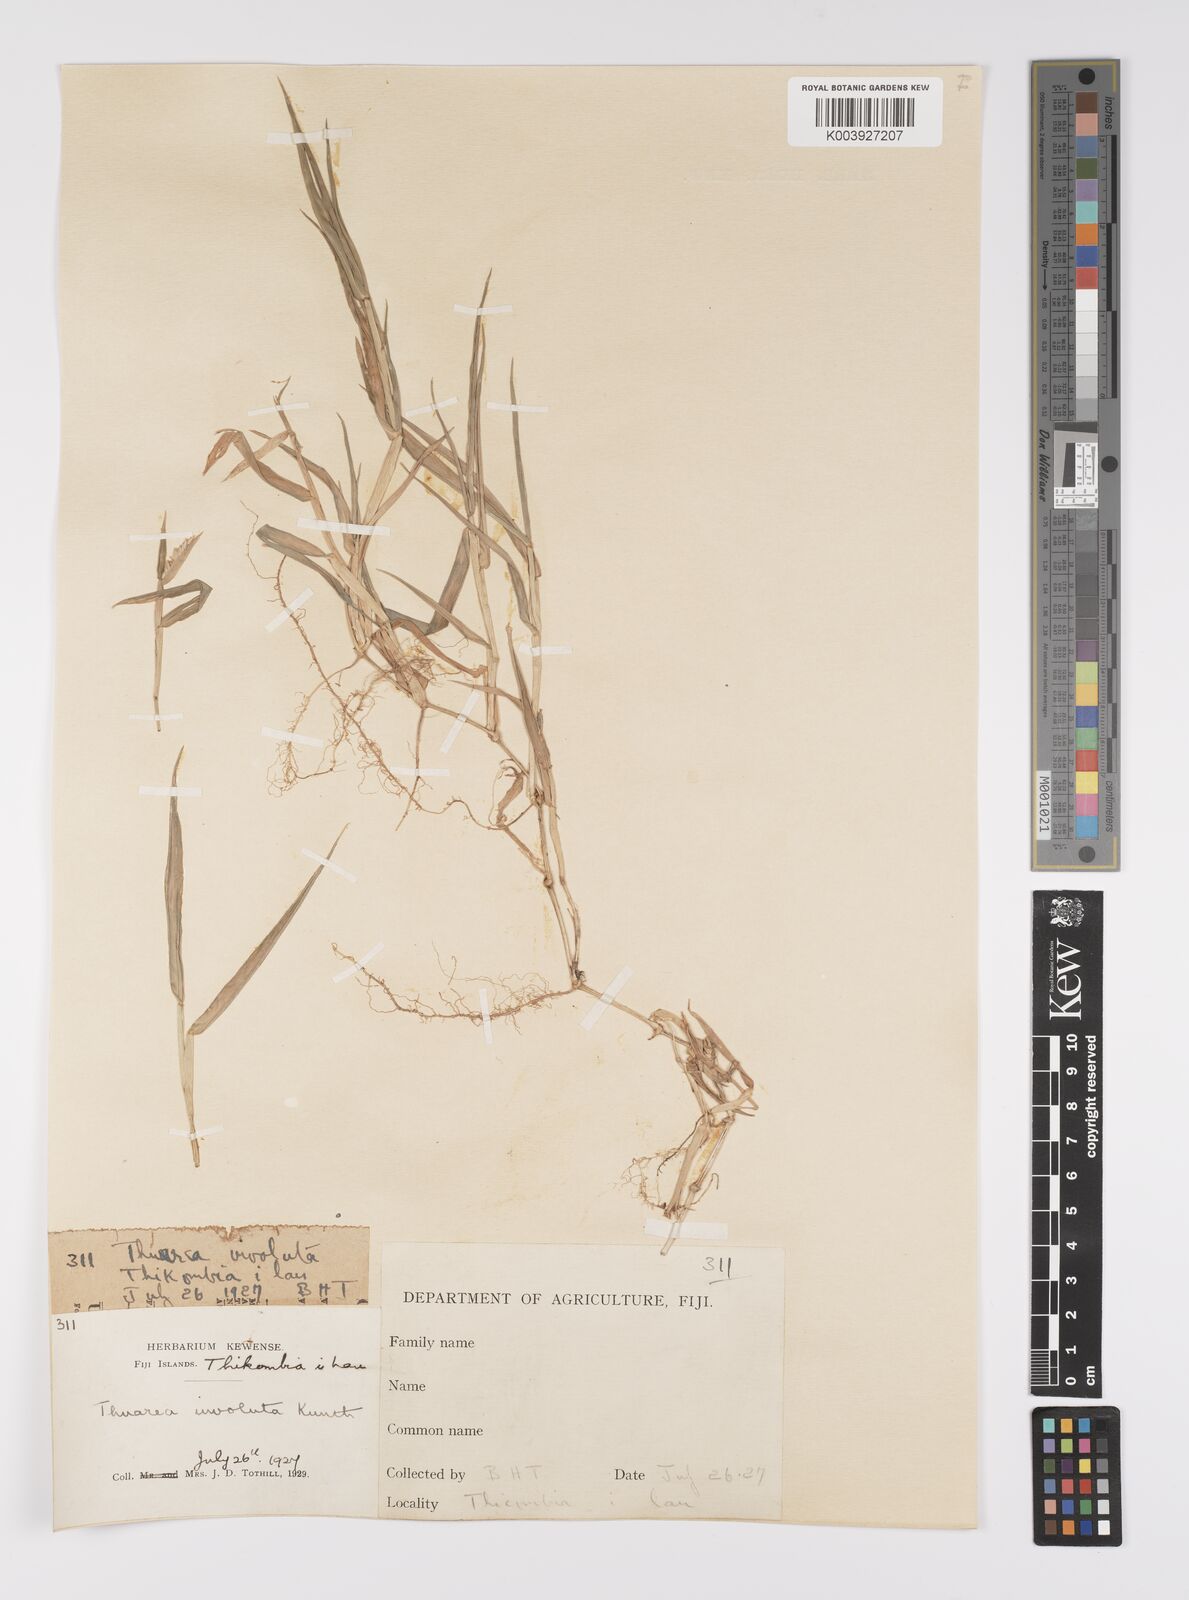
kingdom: Plantae
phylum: Tracheophyta
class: Liliopsida
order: Poales
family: Poaceae
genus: Thuarea
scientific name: Thuarea involuta
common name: Tropical beach grass
